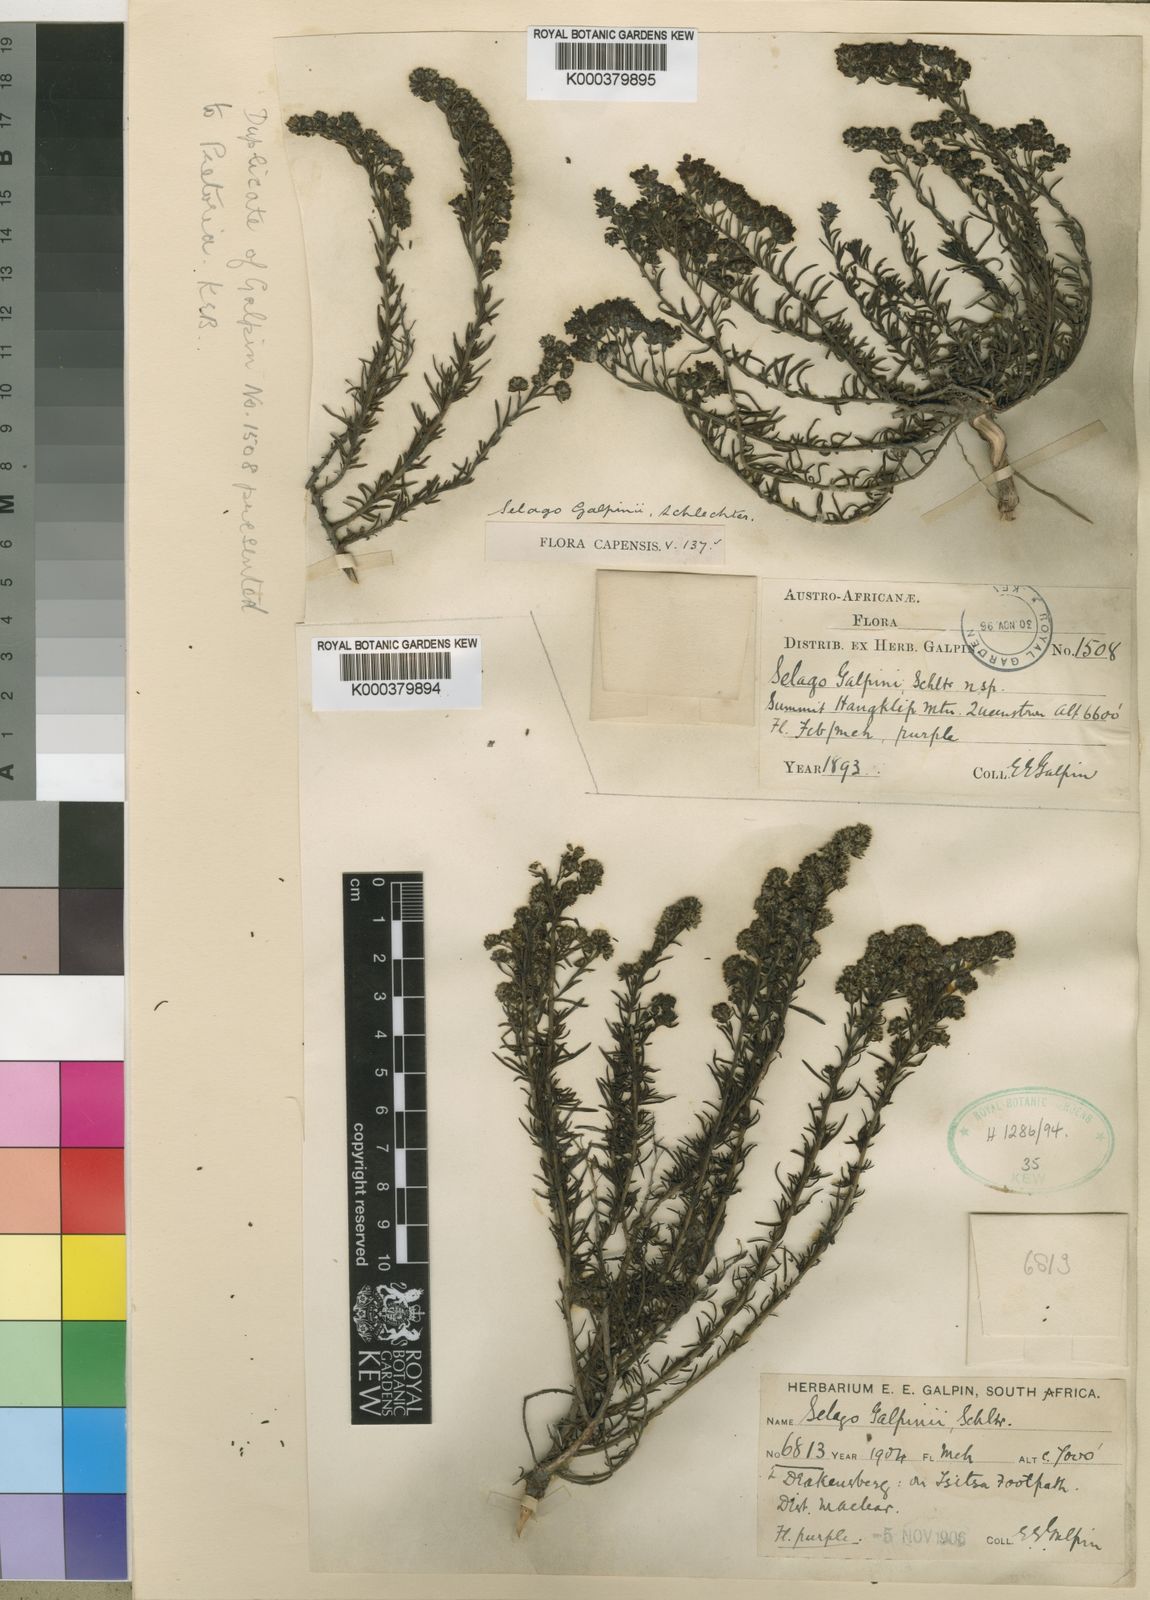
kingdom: Plantae
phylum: Tracheophyta
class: Magnoliopsida
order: Lamiales
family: Scrophulariaceae
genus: Selago
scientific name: Selago galpinii
